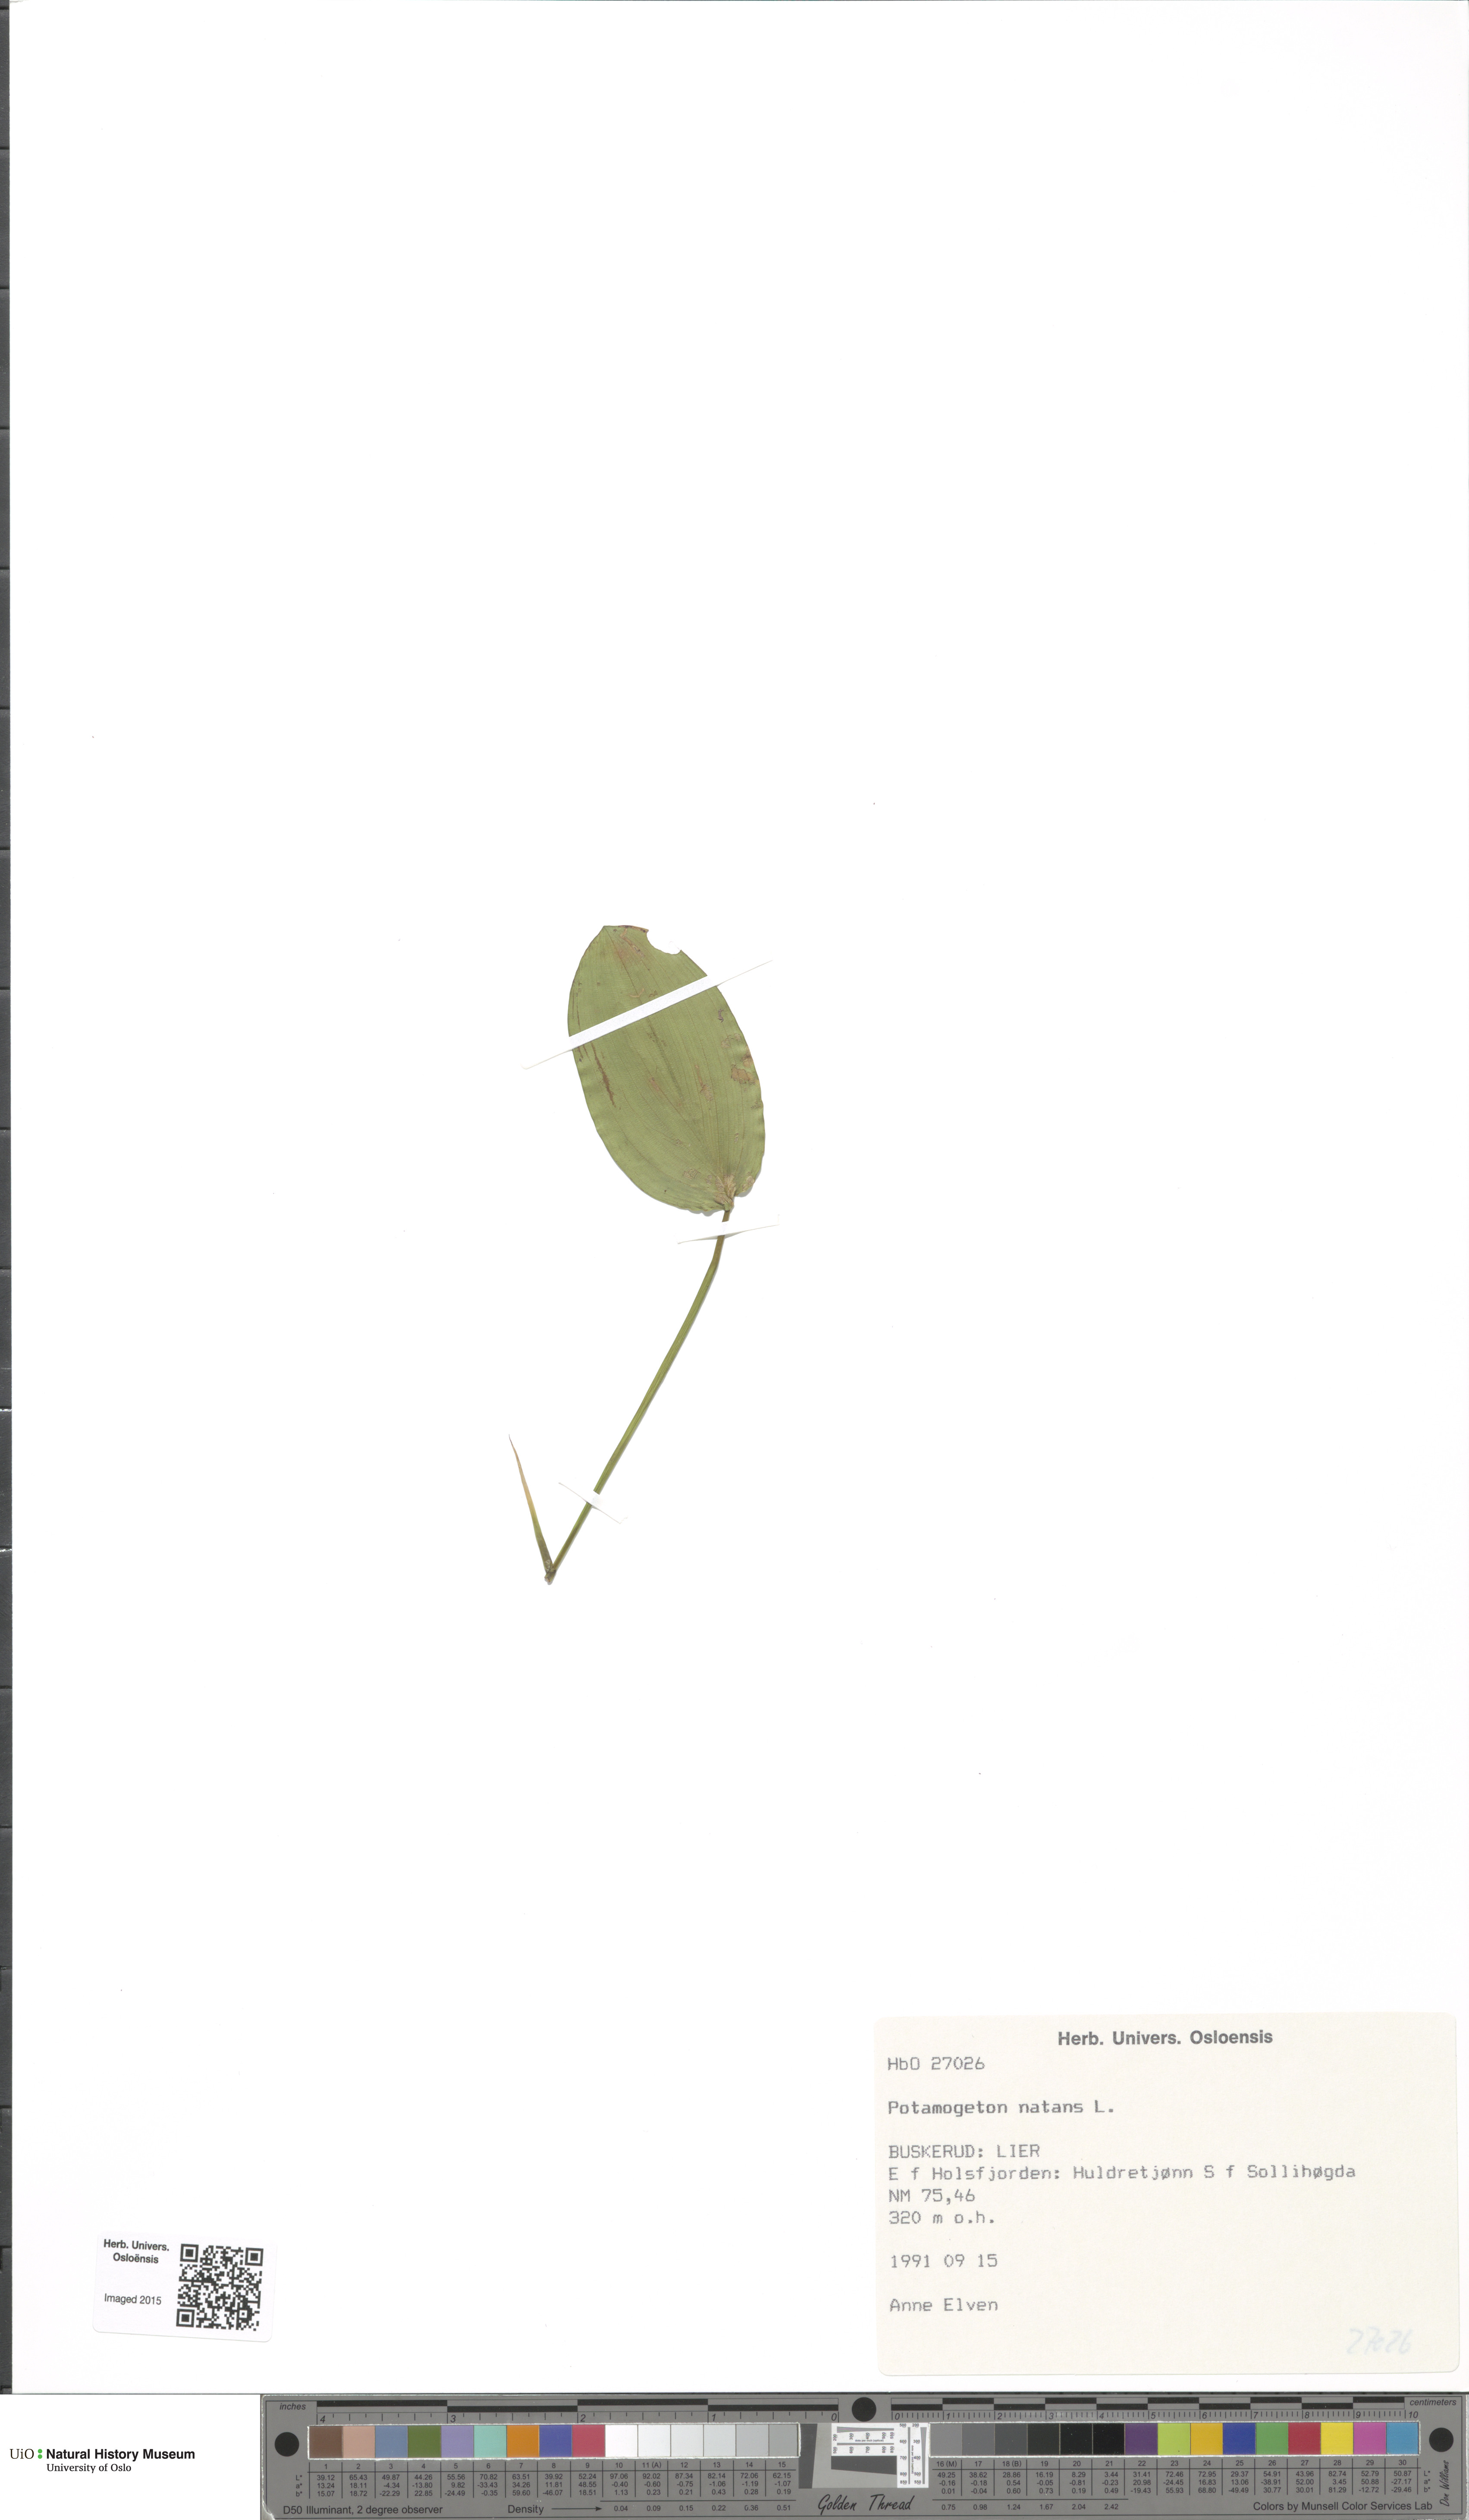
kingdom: Plantae
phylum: Tracheophyta
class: Liliopsida
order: Alismatales
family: Potamogetonaceae
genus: Potamogeton
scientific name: Potamogeton natans
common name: Broad-leaved pondweed
